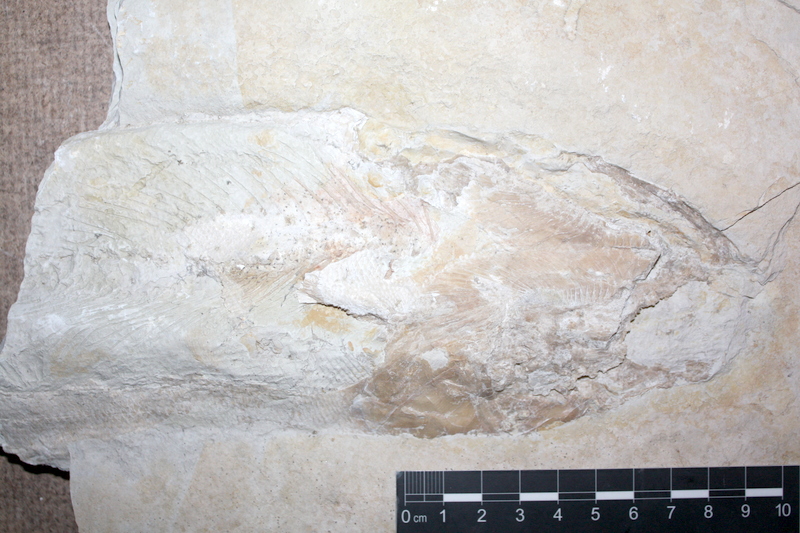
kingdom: Animalia
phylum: Chordata
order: Amiiformes
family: Caturidae
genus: Caturus
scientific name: Caturus
